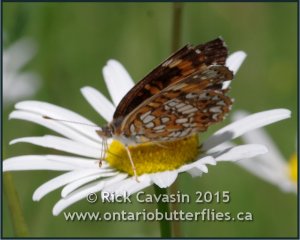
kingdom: Animalia
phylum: Arthropoda
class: Insecta
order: Lepidoptera
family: Nymphalidae
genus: Chlosyne
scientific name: Chlosyne harrisii
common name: Harris's Checkerspot
